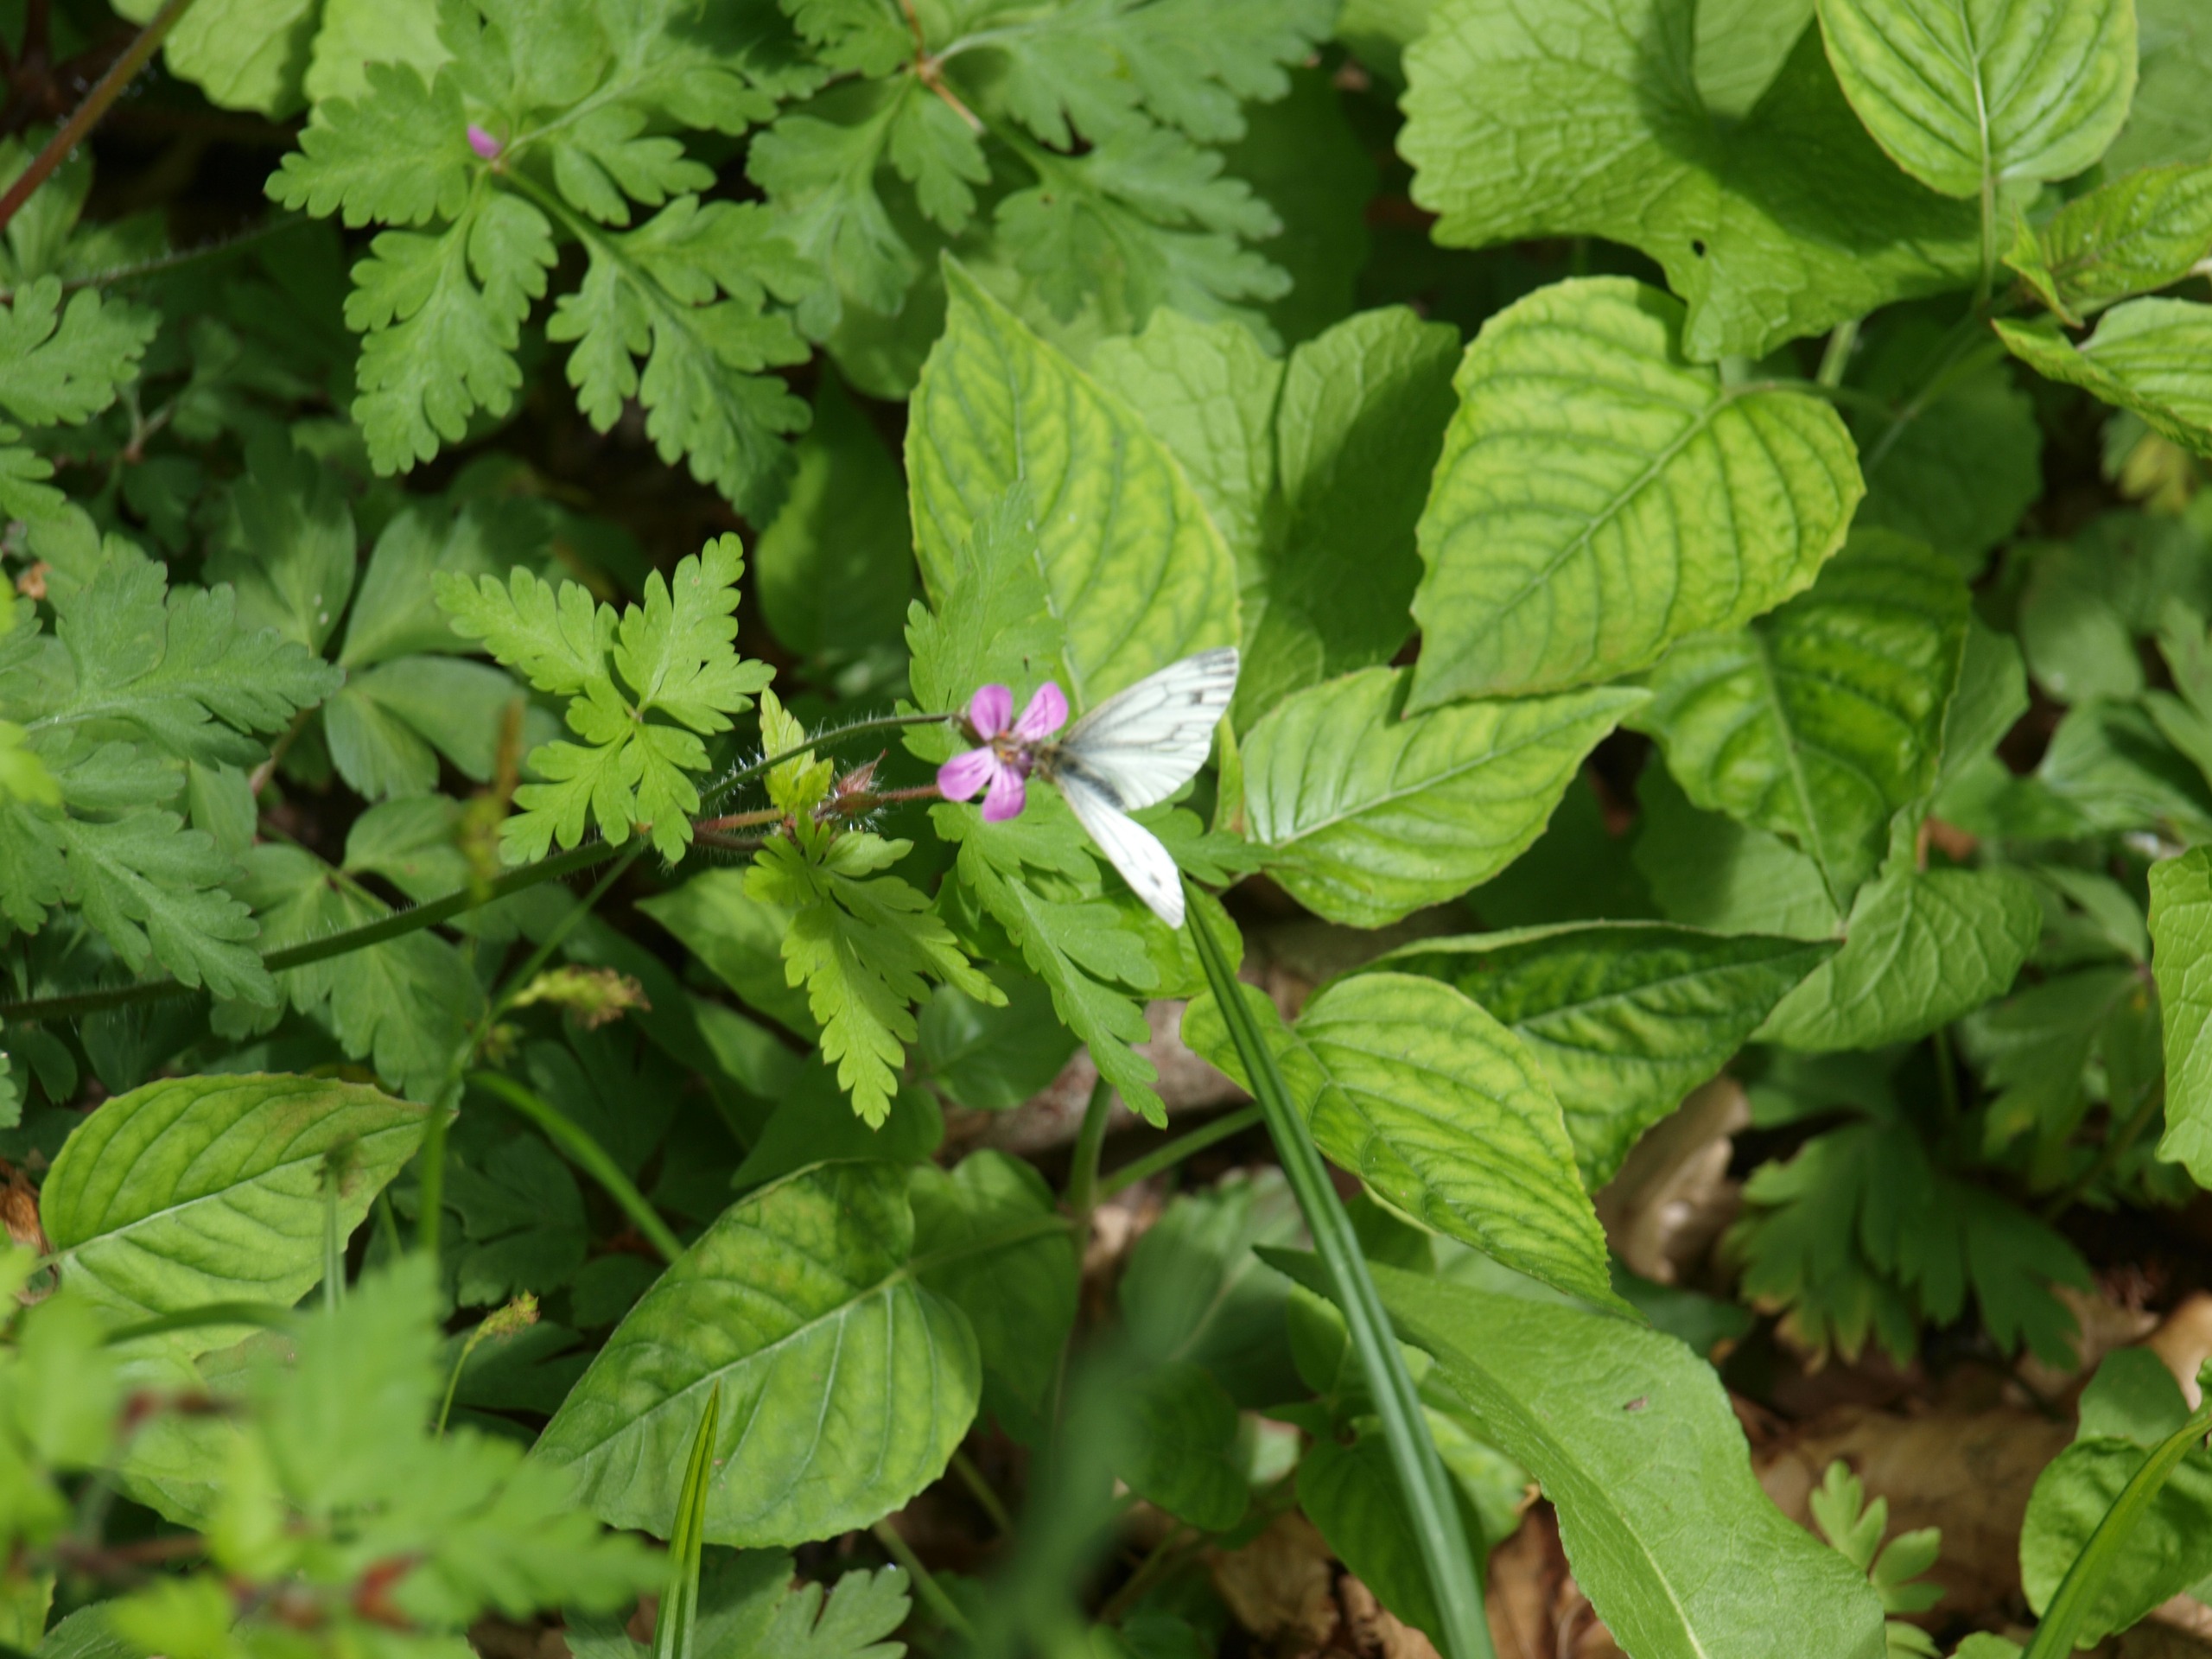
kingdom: Animalia
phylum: Arthropoda
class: Insecta
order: Lepidoptera
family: Pieridae
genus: Pieris
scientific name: Pieris napi
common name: Grønåret kålsommerfugl
